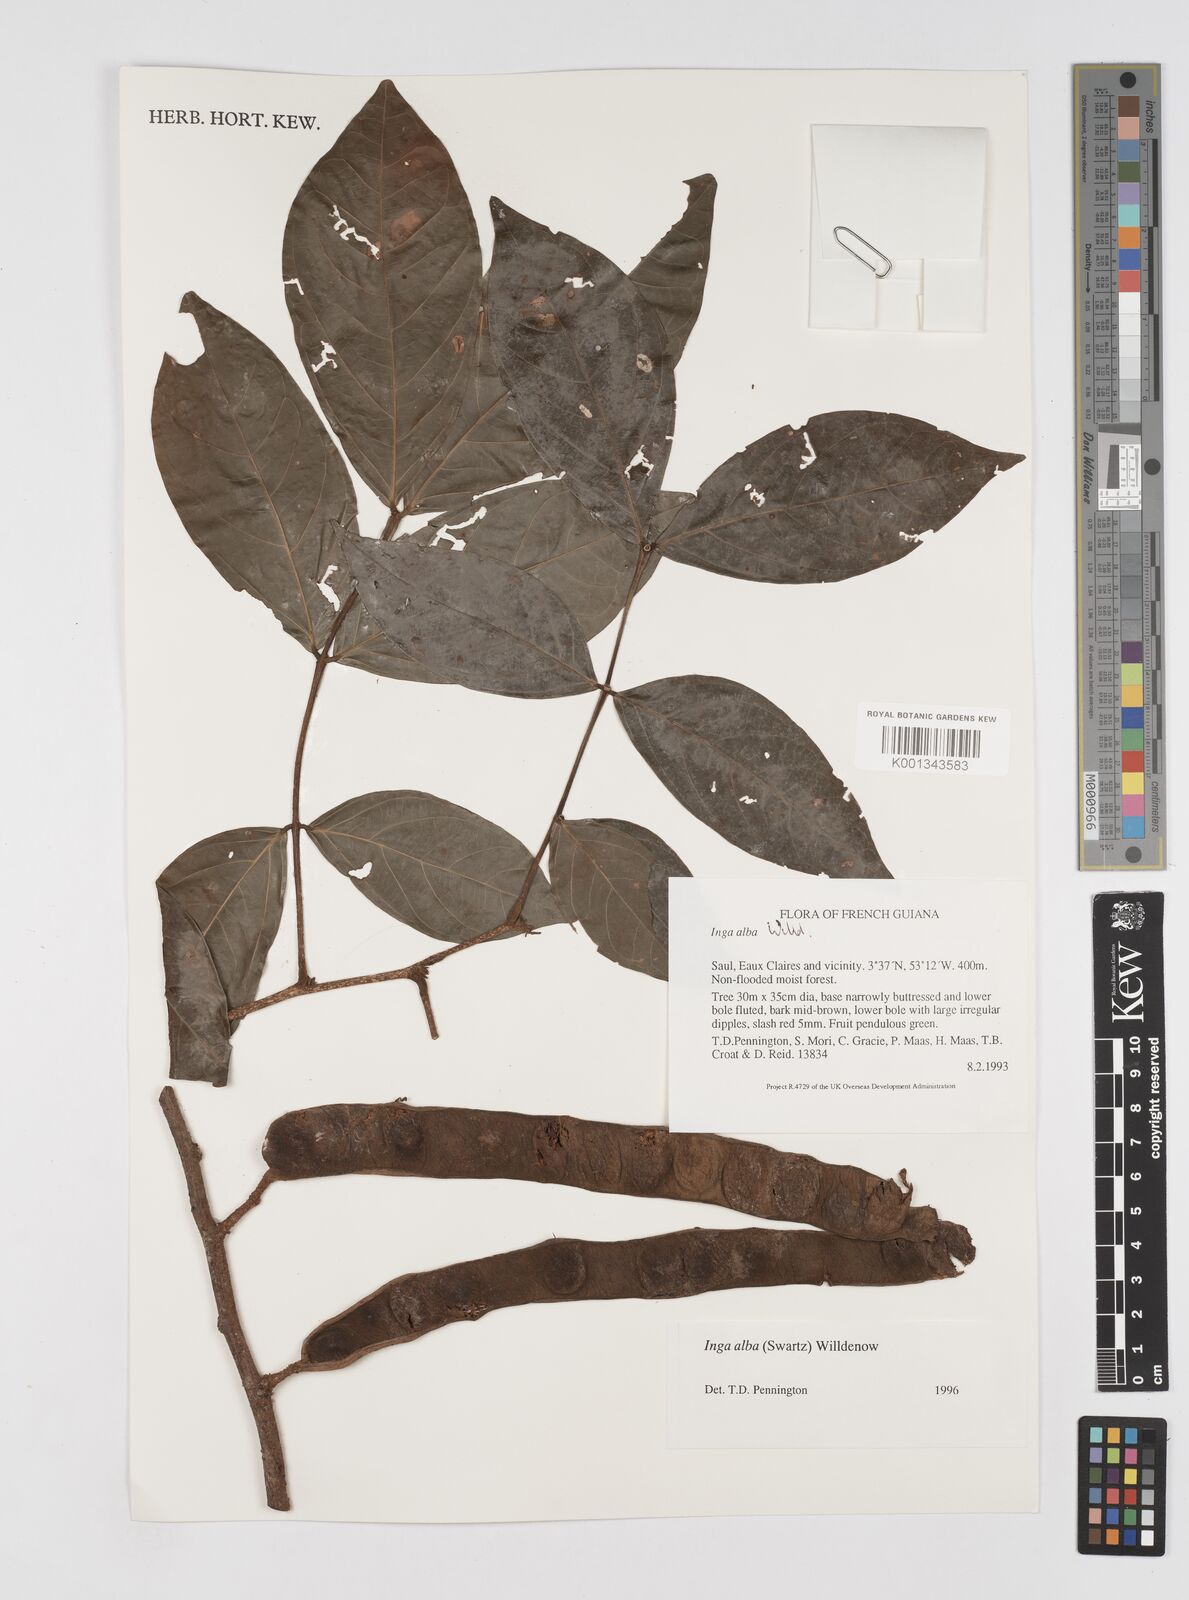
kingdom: Plantae
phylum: Tracheophyta
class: Magnoliopsida
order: Fabales
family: Fabaceae
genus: Inga
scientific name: Inga alba
